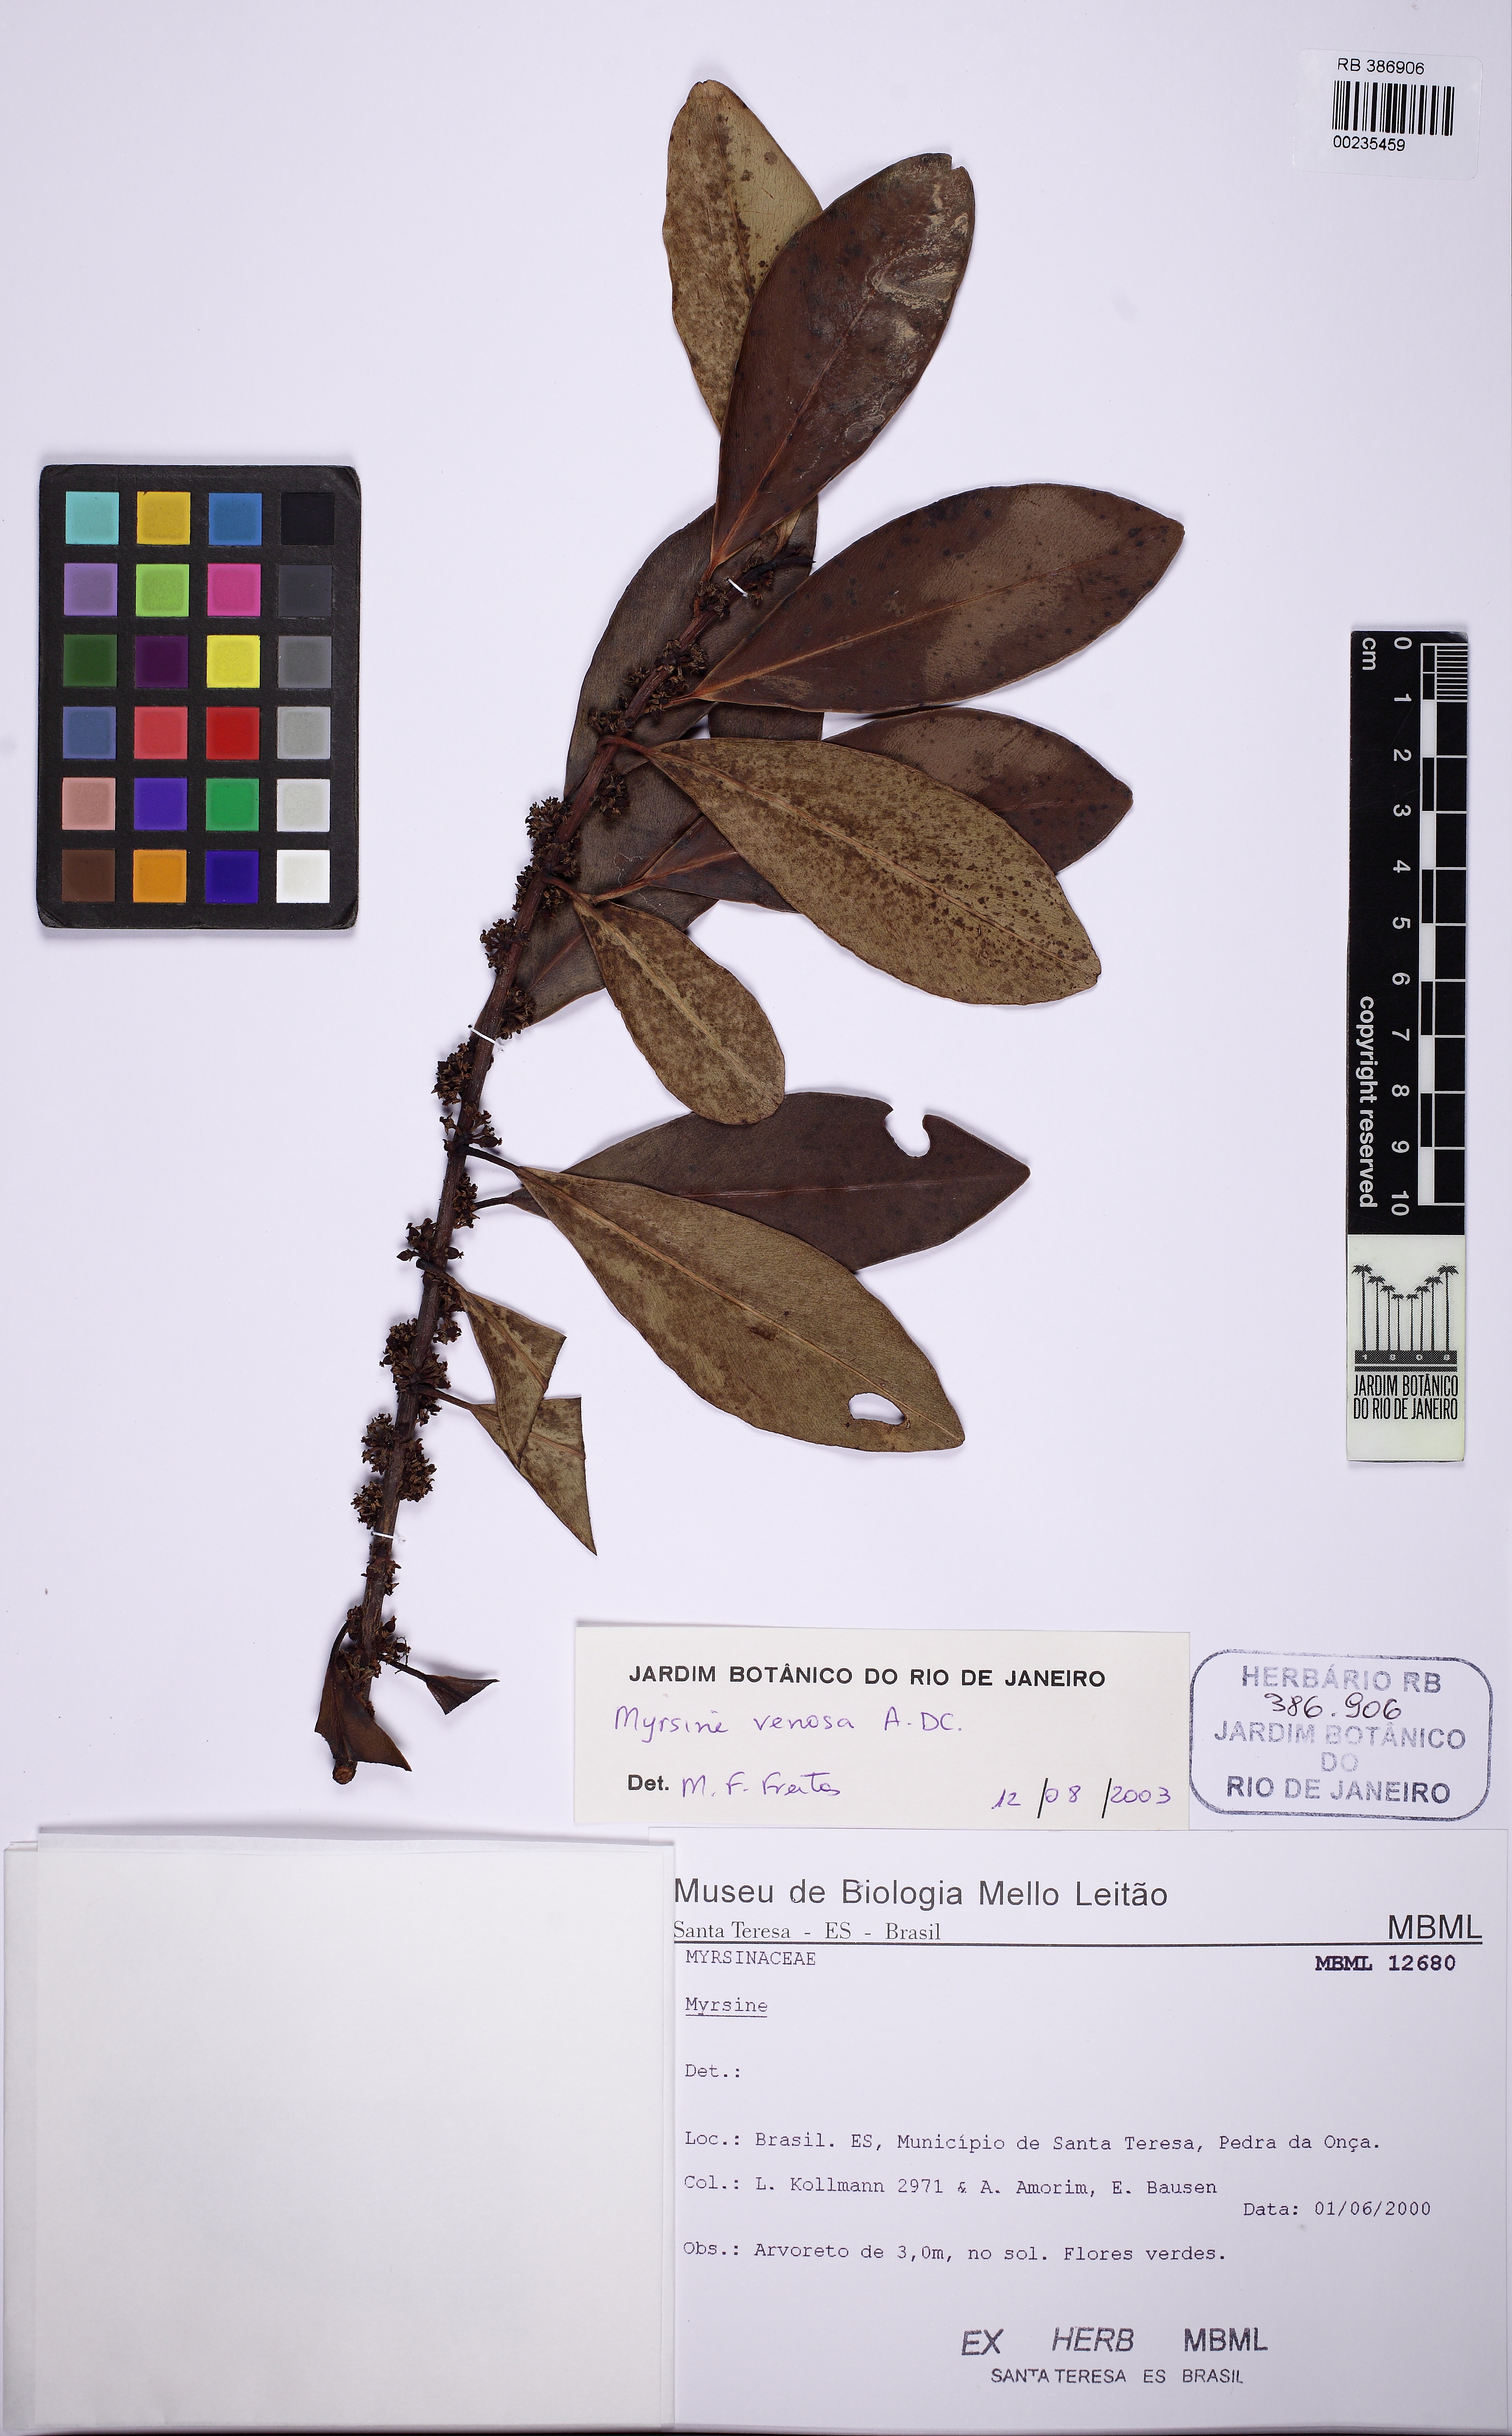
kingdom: Plantae
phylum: Tracheophyta
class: Magnoliopsida
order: Ericales
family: Primulaceae
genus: Myrsine
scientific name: Myrsine venosa
